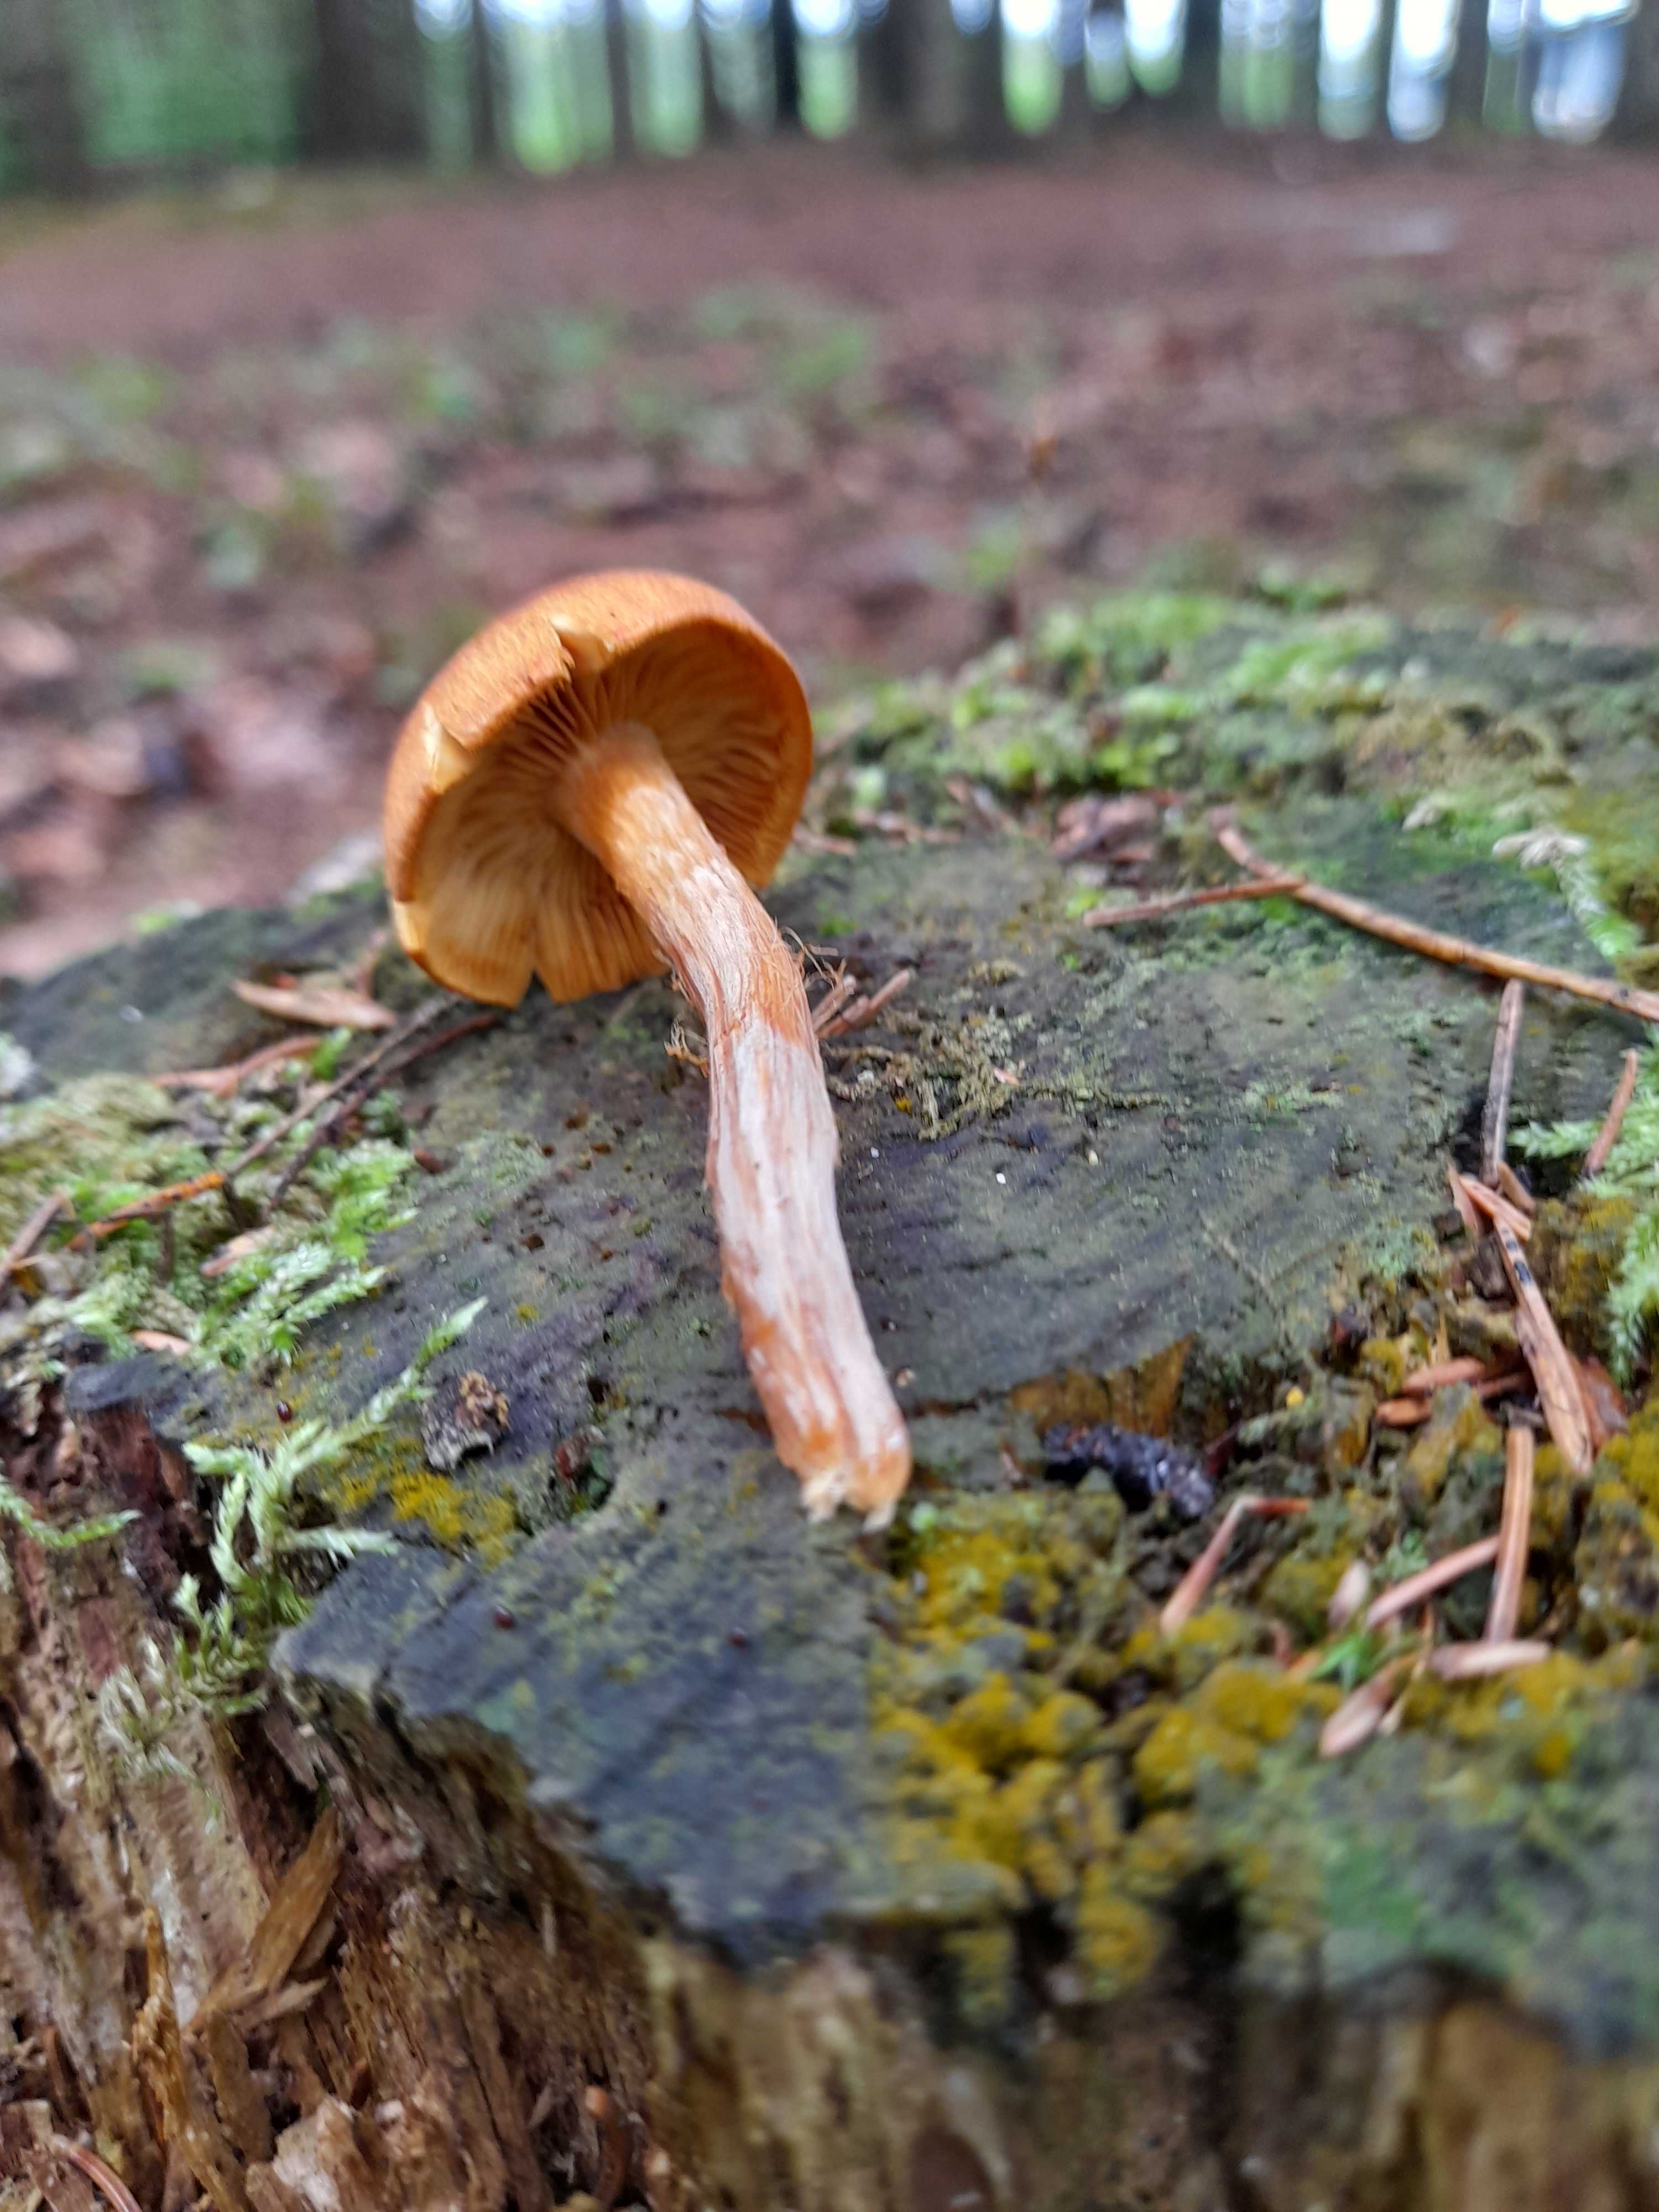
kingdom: Fungi
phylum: Basidiomycota
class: Agaricomycetes
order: Agaricales
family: Cortinariaceae
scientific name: Cortinariaceae
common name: slørhatfamilien
